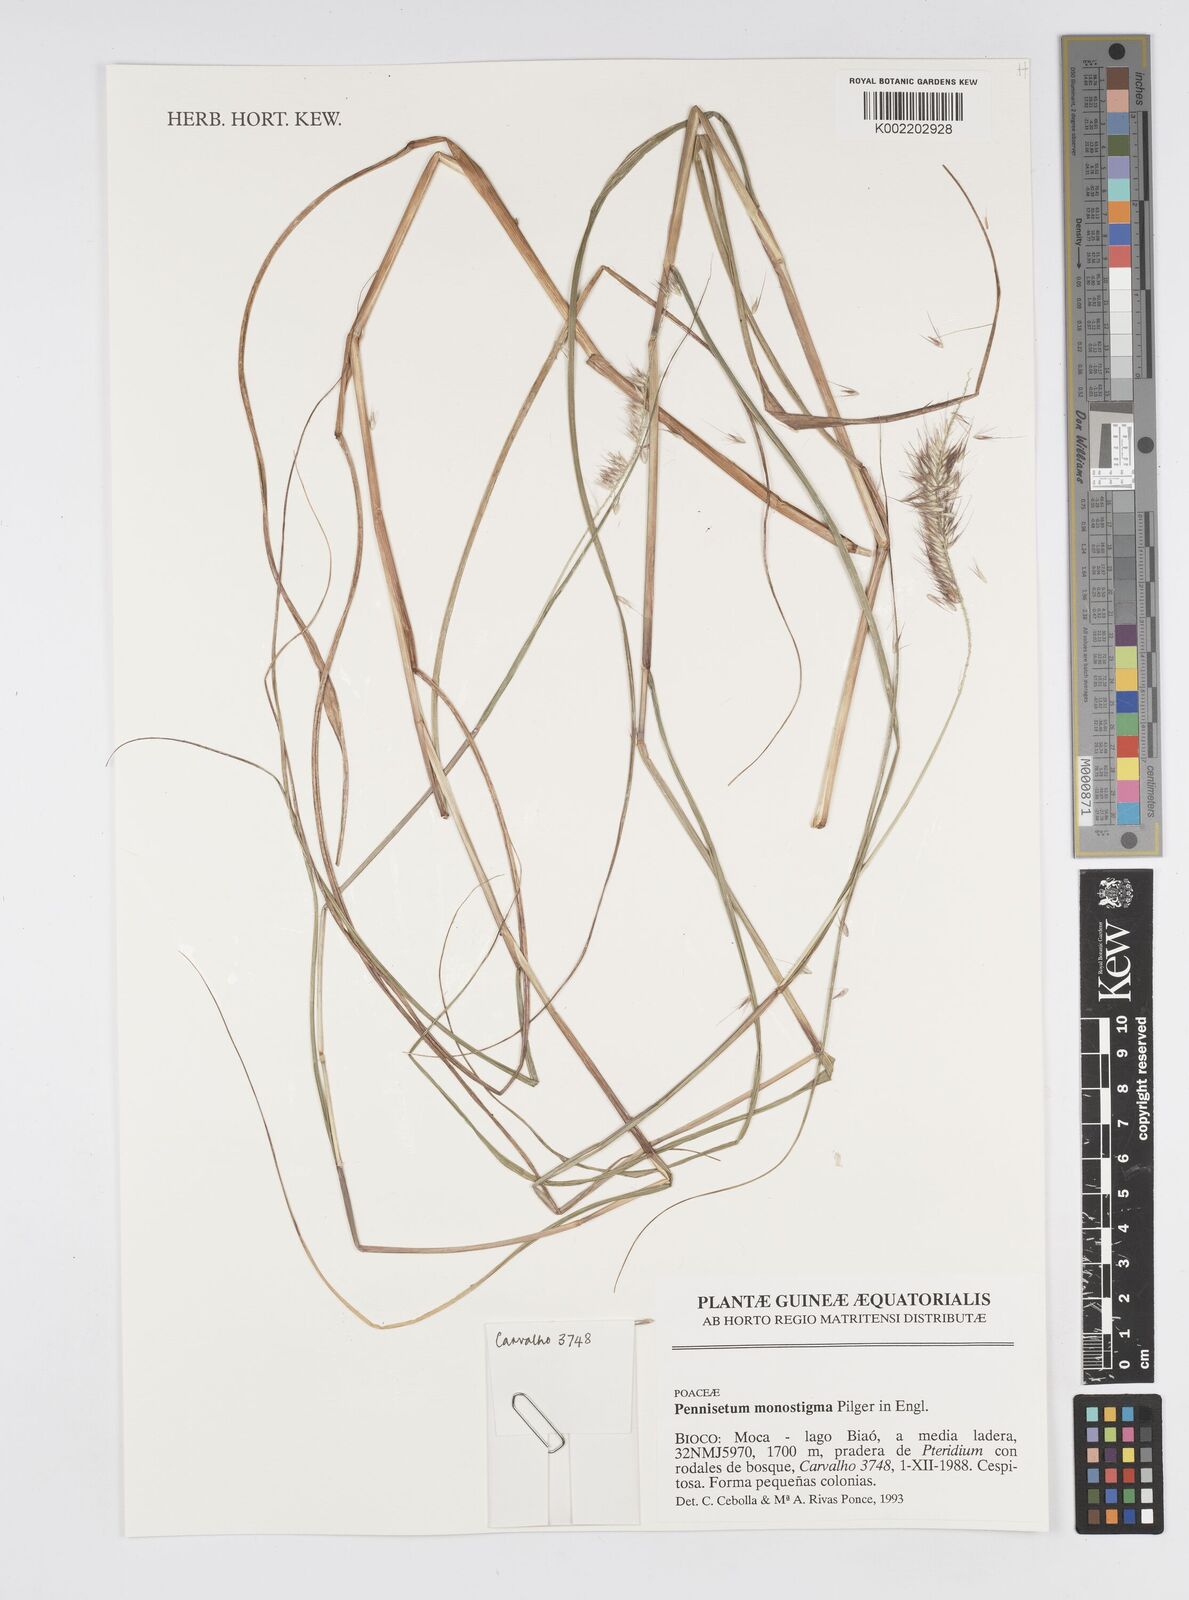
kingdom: Plantae
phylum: Tracheophyta
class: Liliopsida
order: Poales
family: Poaceae
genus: Cenchrus
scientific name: Cenchrus monostigma
